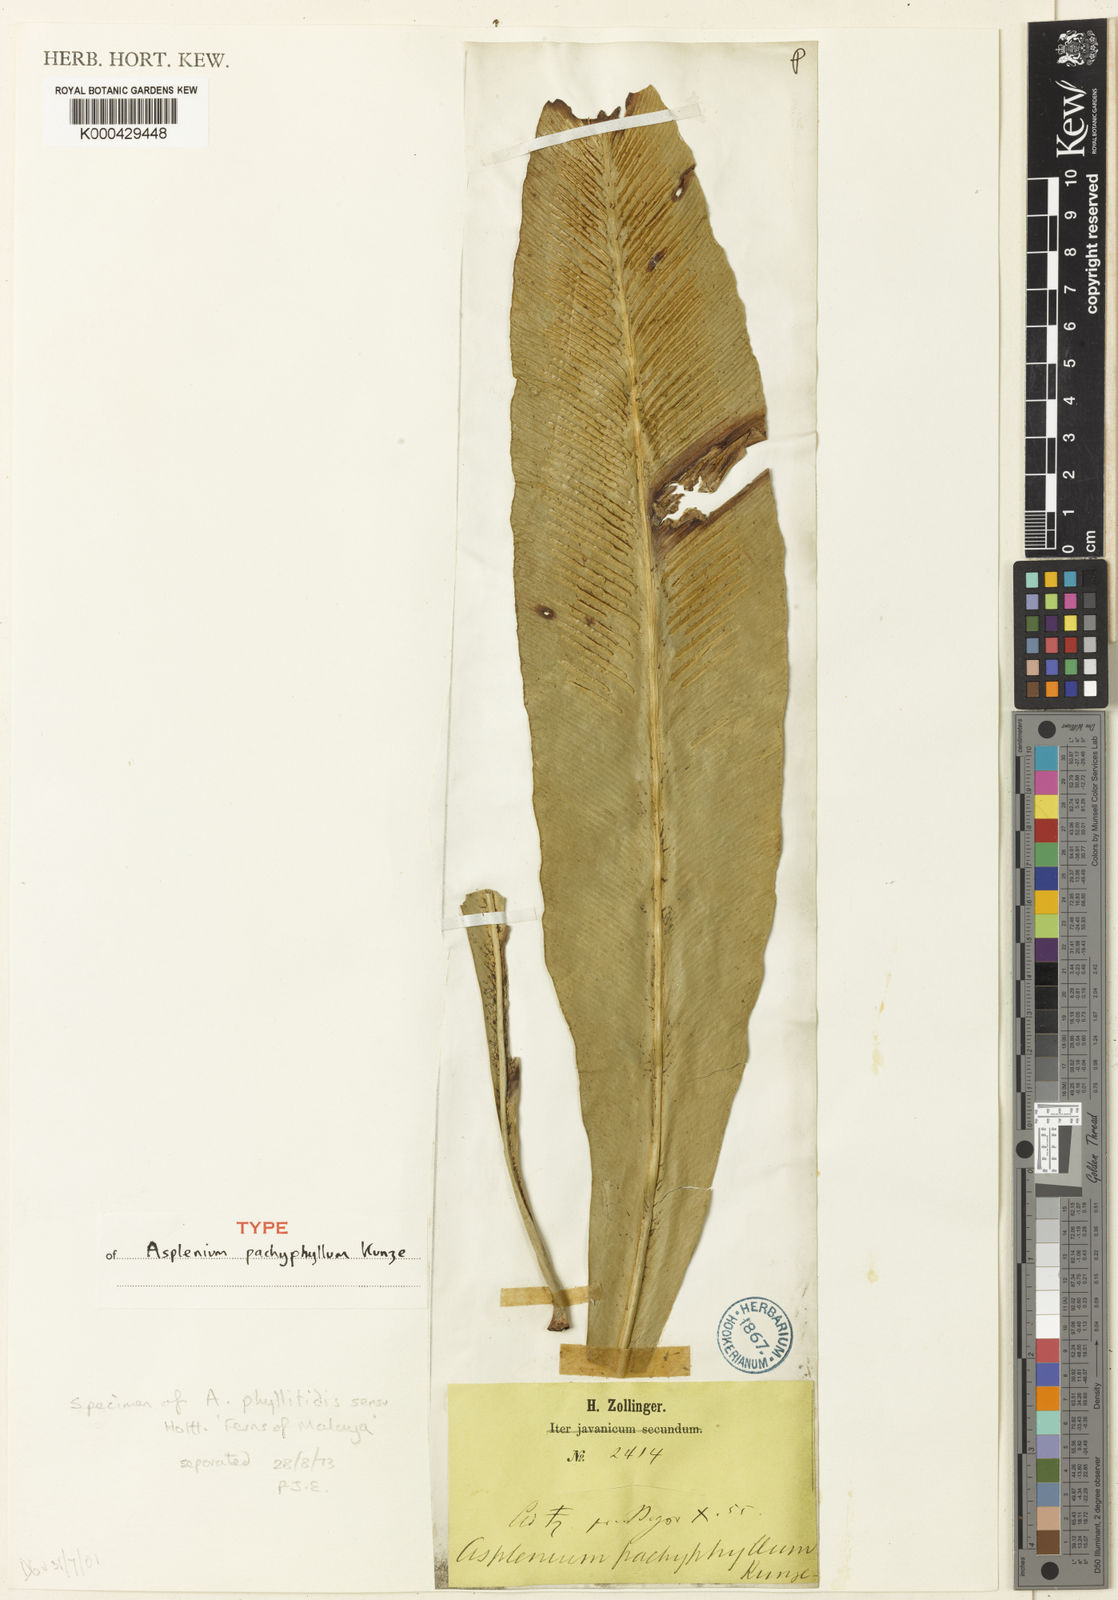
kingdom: Plantae
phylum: Tracheophyta
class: Polypodiopsida
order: Polypodiales
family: Aspleniaceae
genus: Asplenium
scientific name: Asplenium vittaeforme
